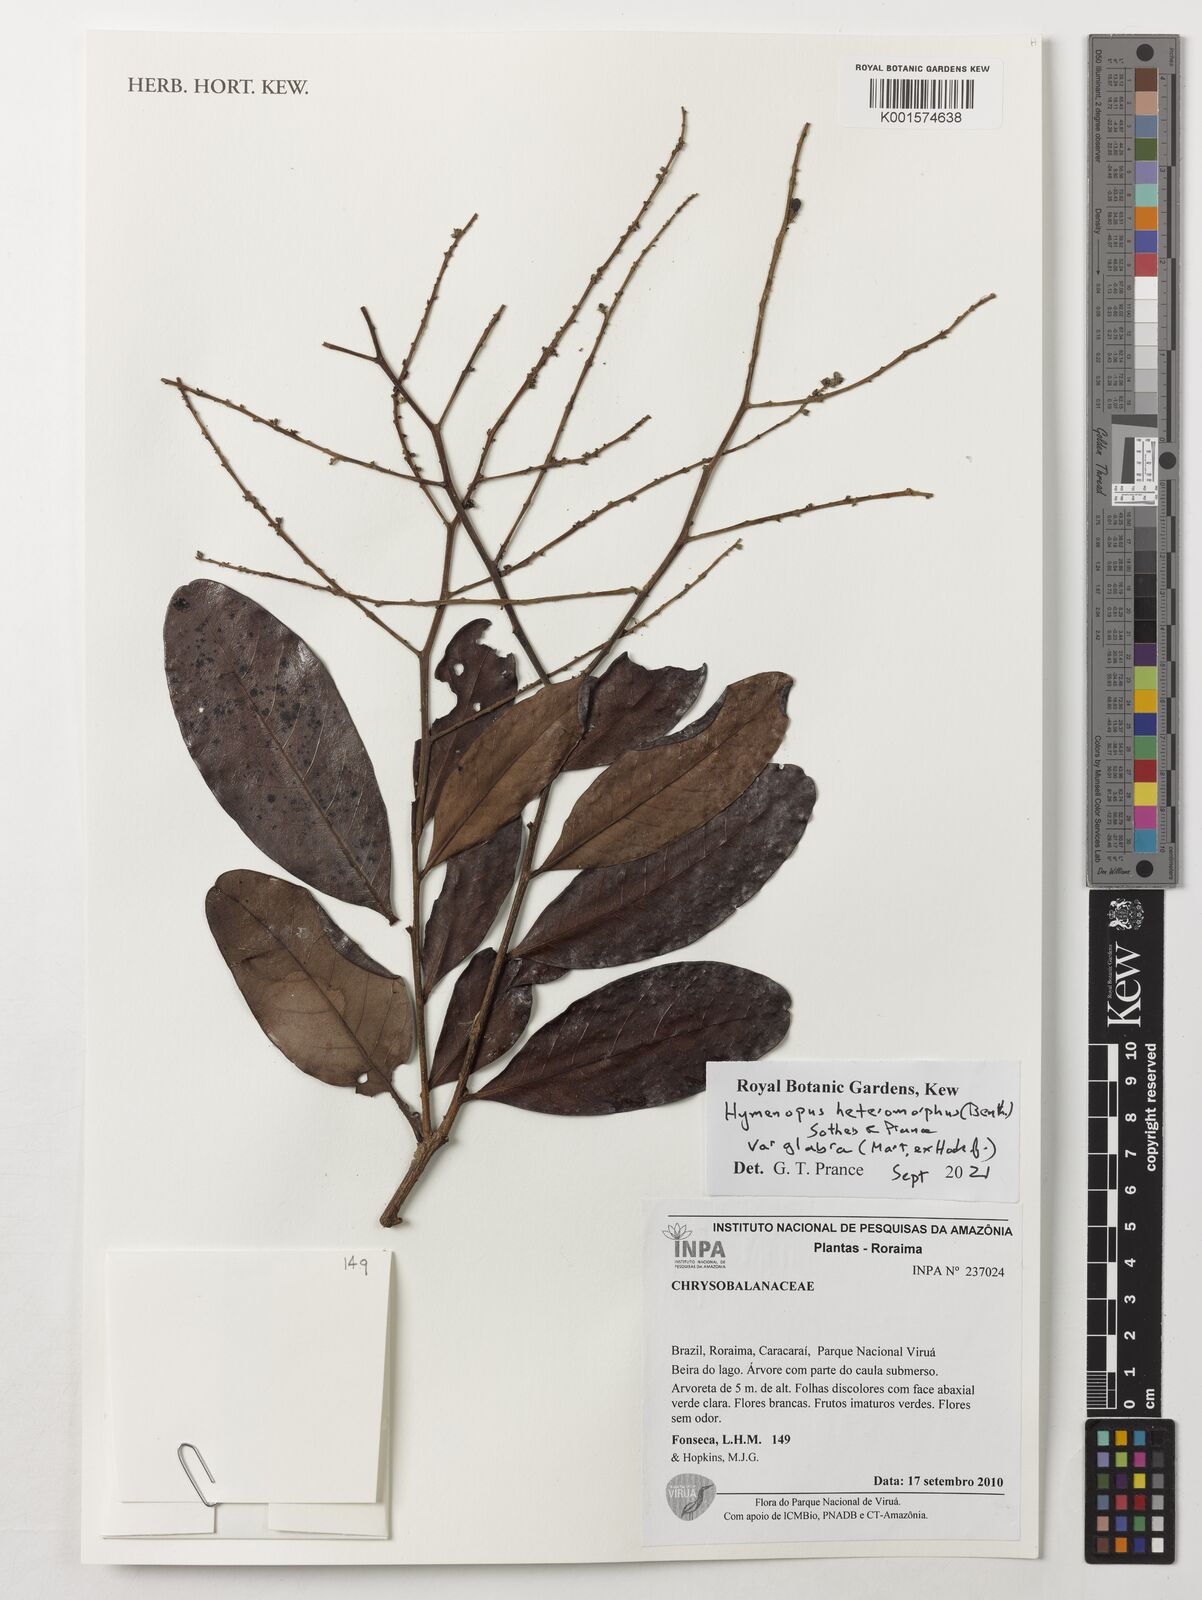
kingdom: Plantae
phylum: Tracheophyta
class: Magnoliopsida
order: Malpighiales
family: Chrysobalanaceae
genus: Hymenopus
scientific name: Hymenopus heteromorphus
